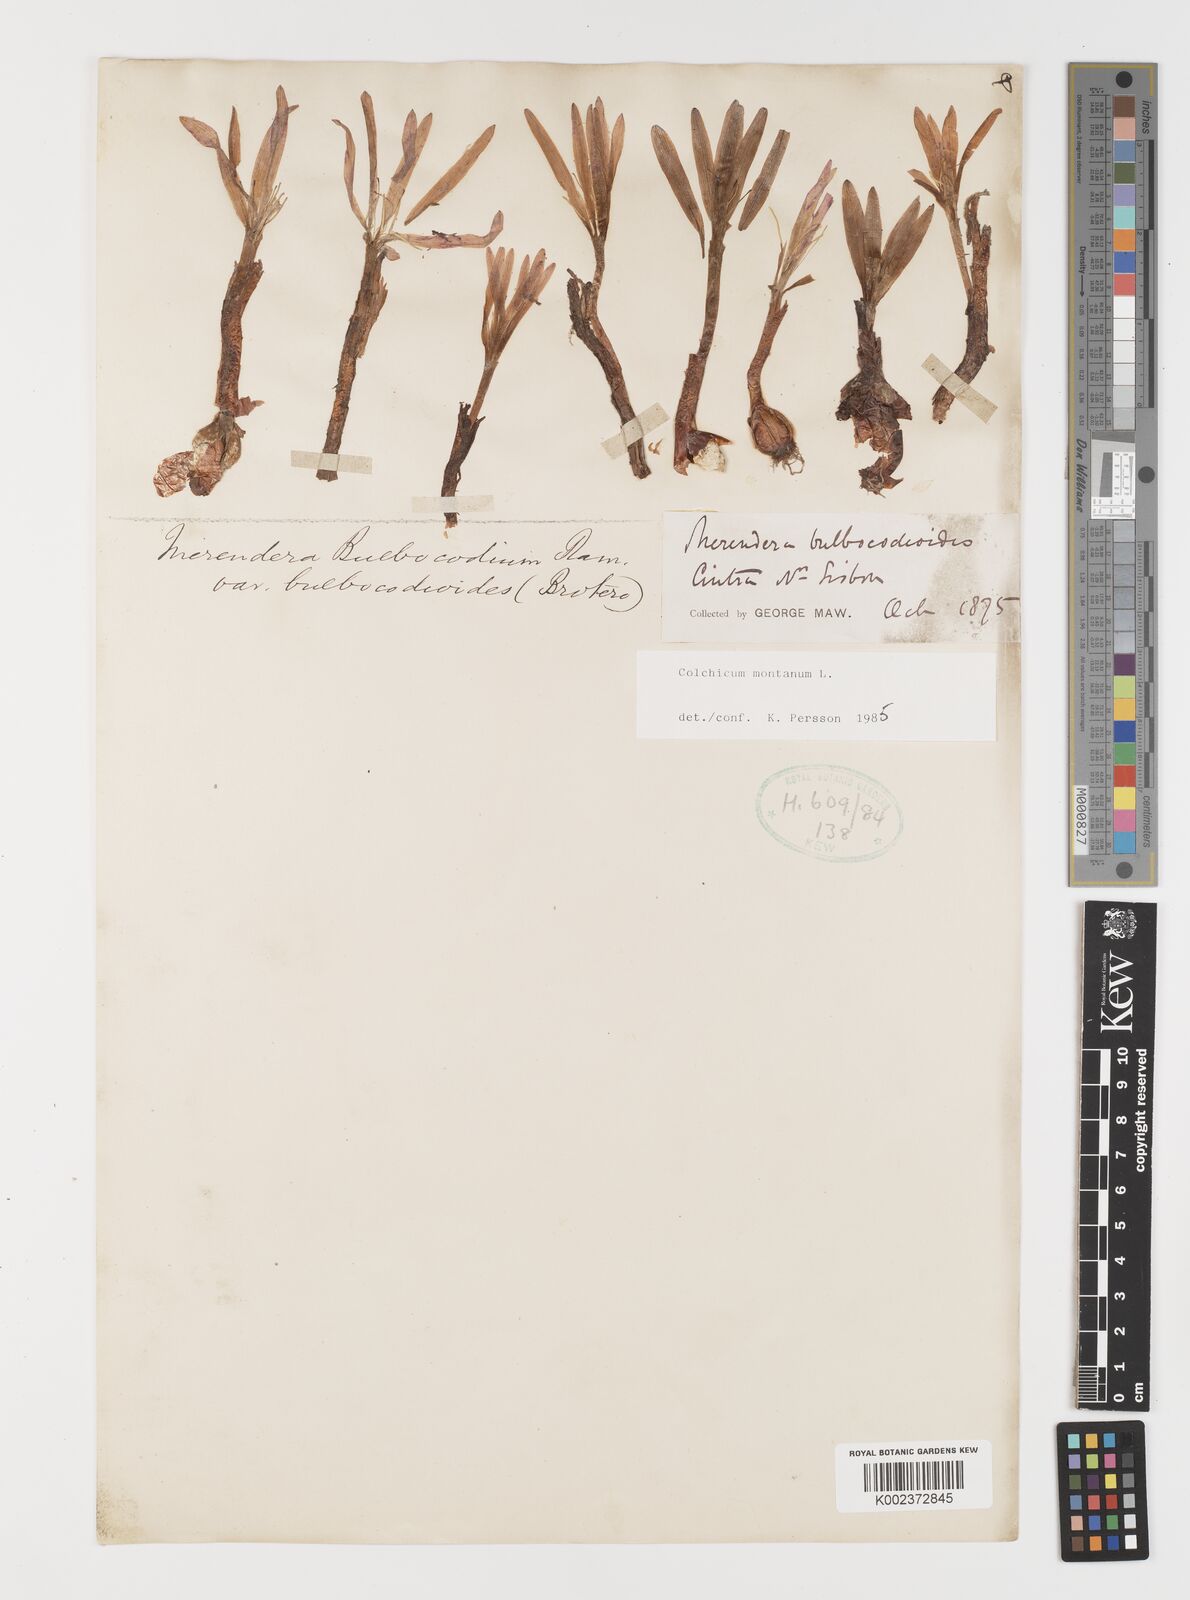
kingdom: Plantae
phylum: Tracheophyta
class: Liliopsida
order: Liliales
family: Colchicaceae
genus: Colchicum
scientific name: Colchicum montanum
